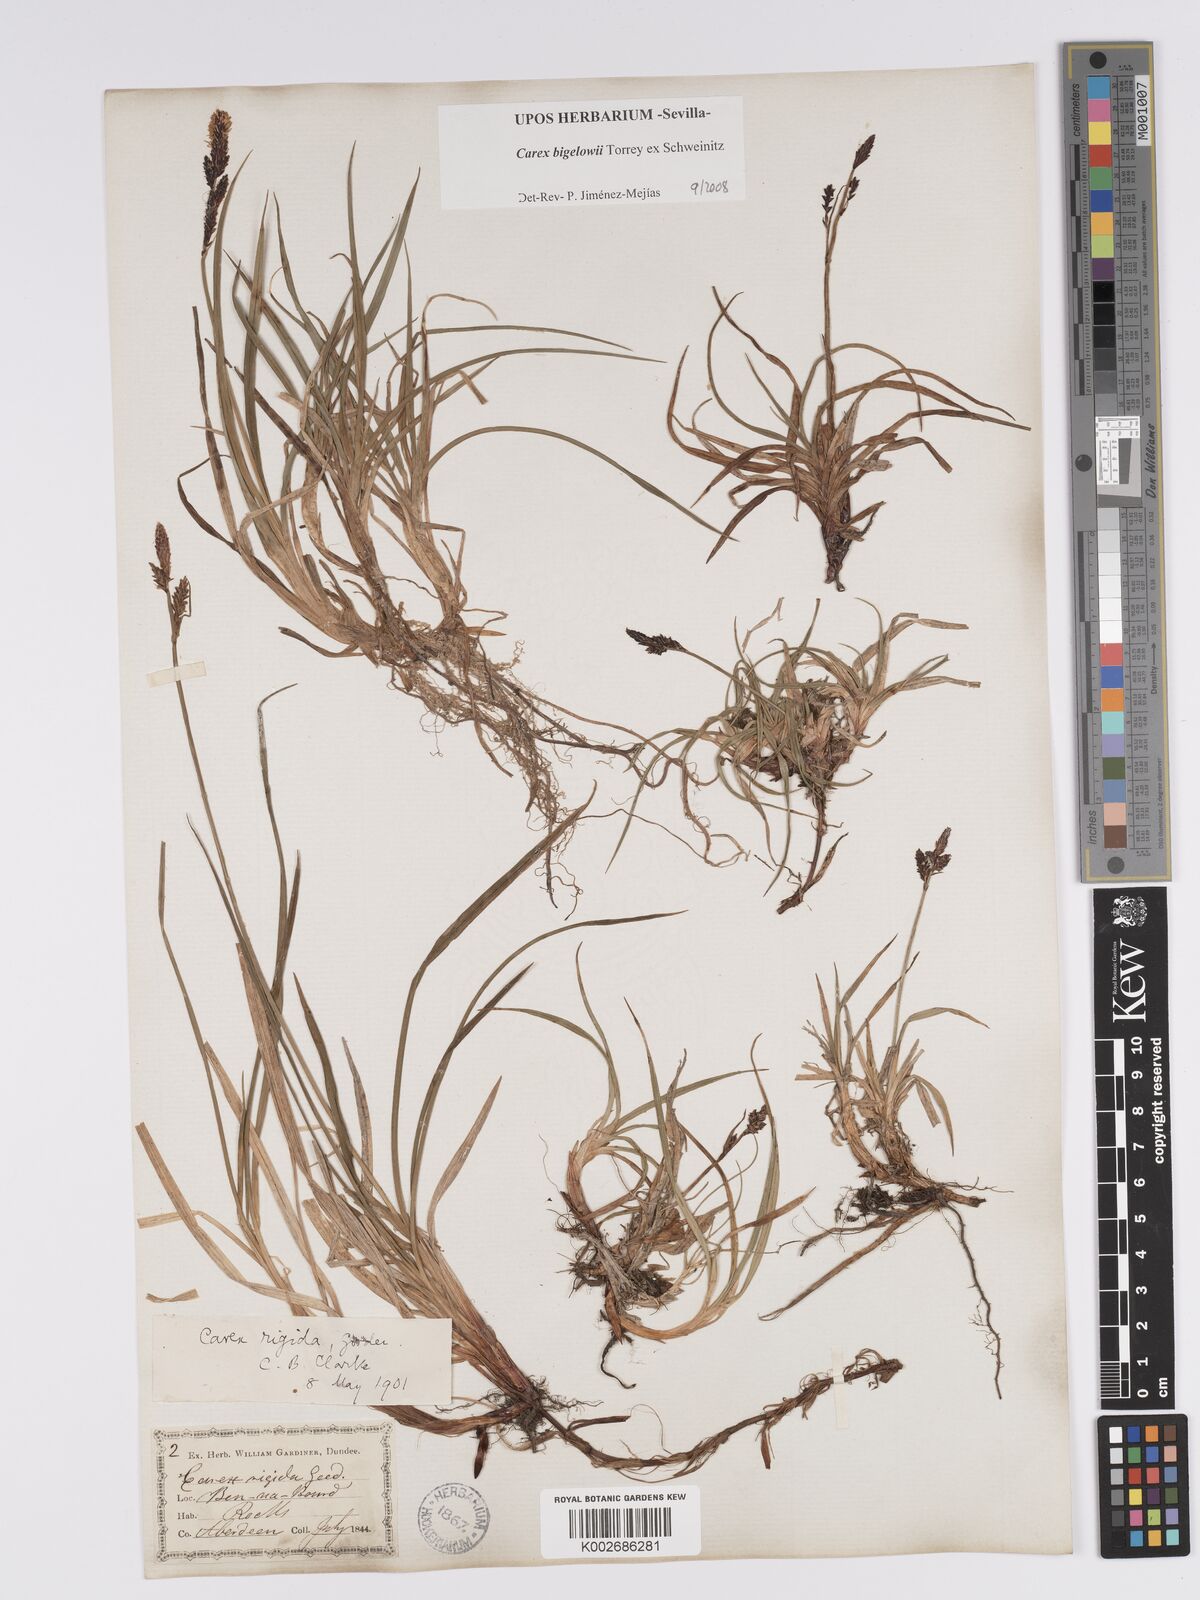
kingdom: Plantae
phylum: Tracheophyta
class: Liliopsida
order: Poales
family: Cyperaceae
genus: Carex
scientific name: Carex bigelowii
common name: Stiff sedge
